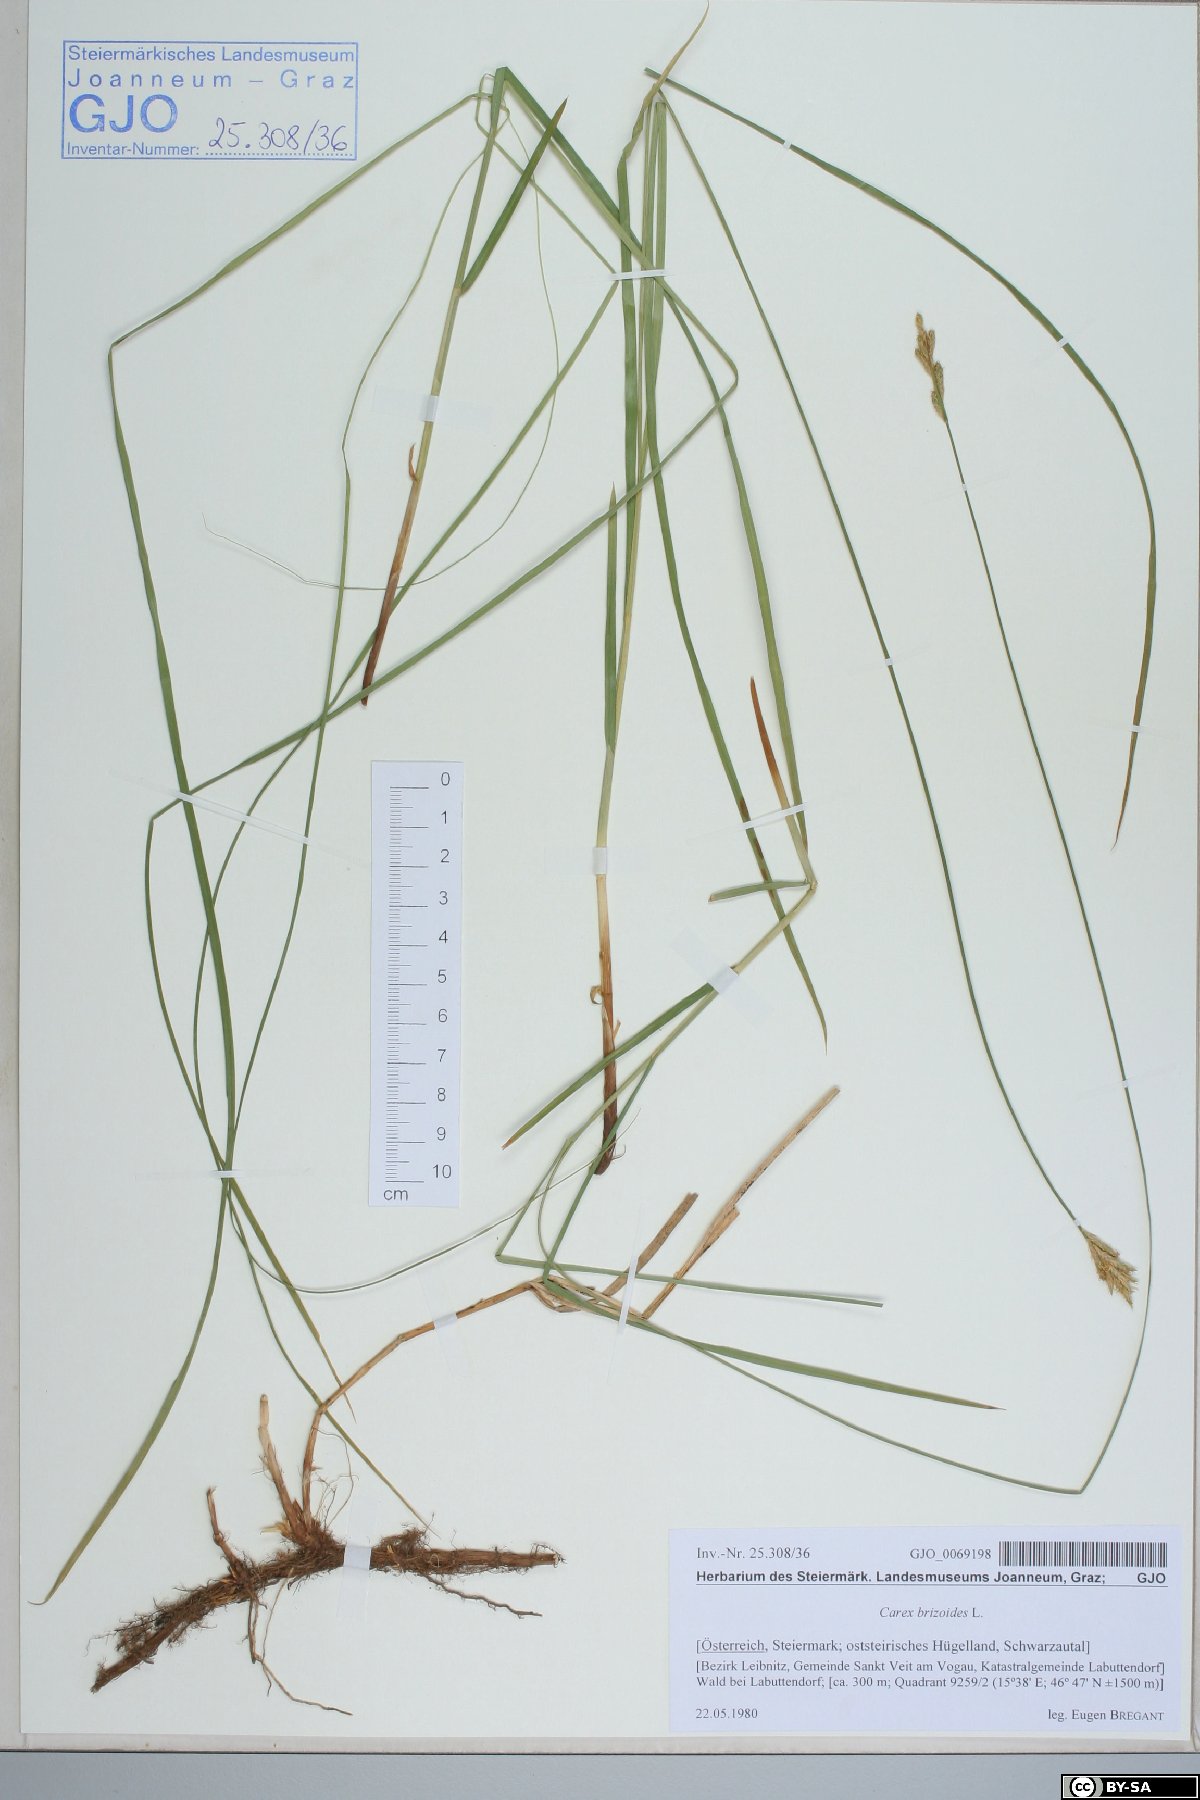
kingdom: Plantae
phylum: Tracheophyta
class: Liliopsida
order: Poales
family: Cyperaceae
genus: Carex
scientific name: Carex brizoides
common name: Quaking-grass sedge
